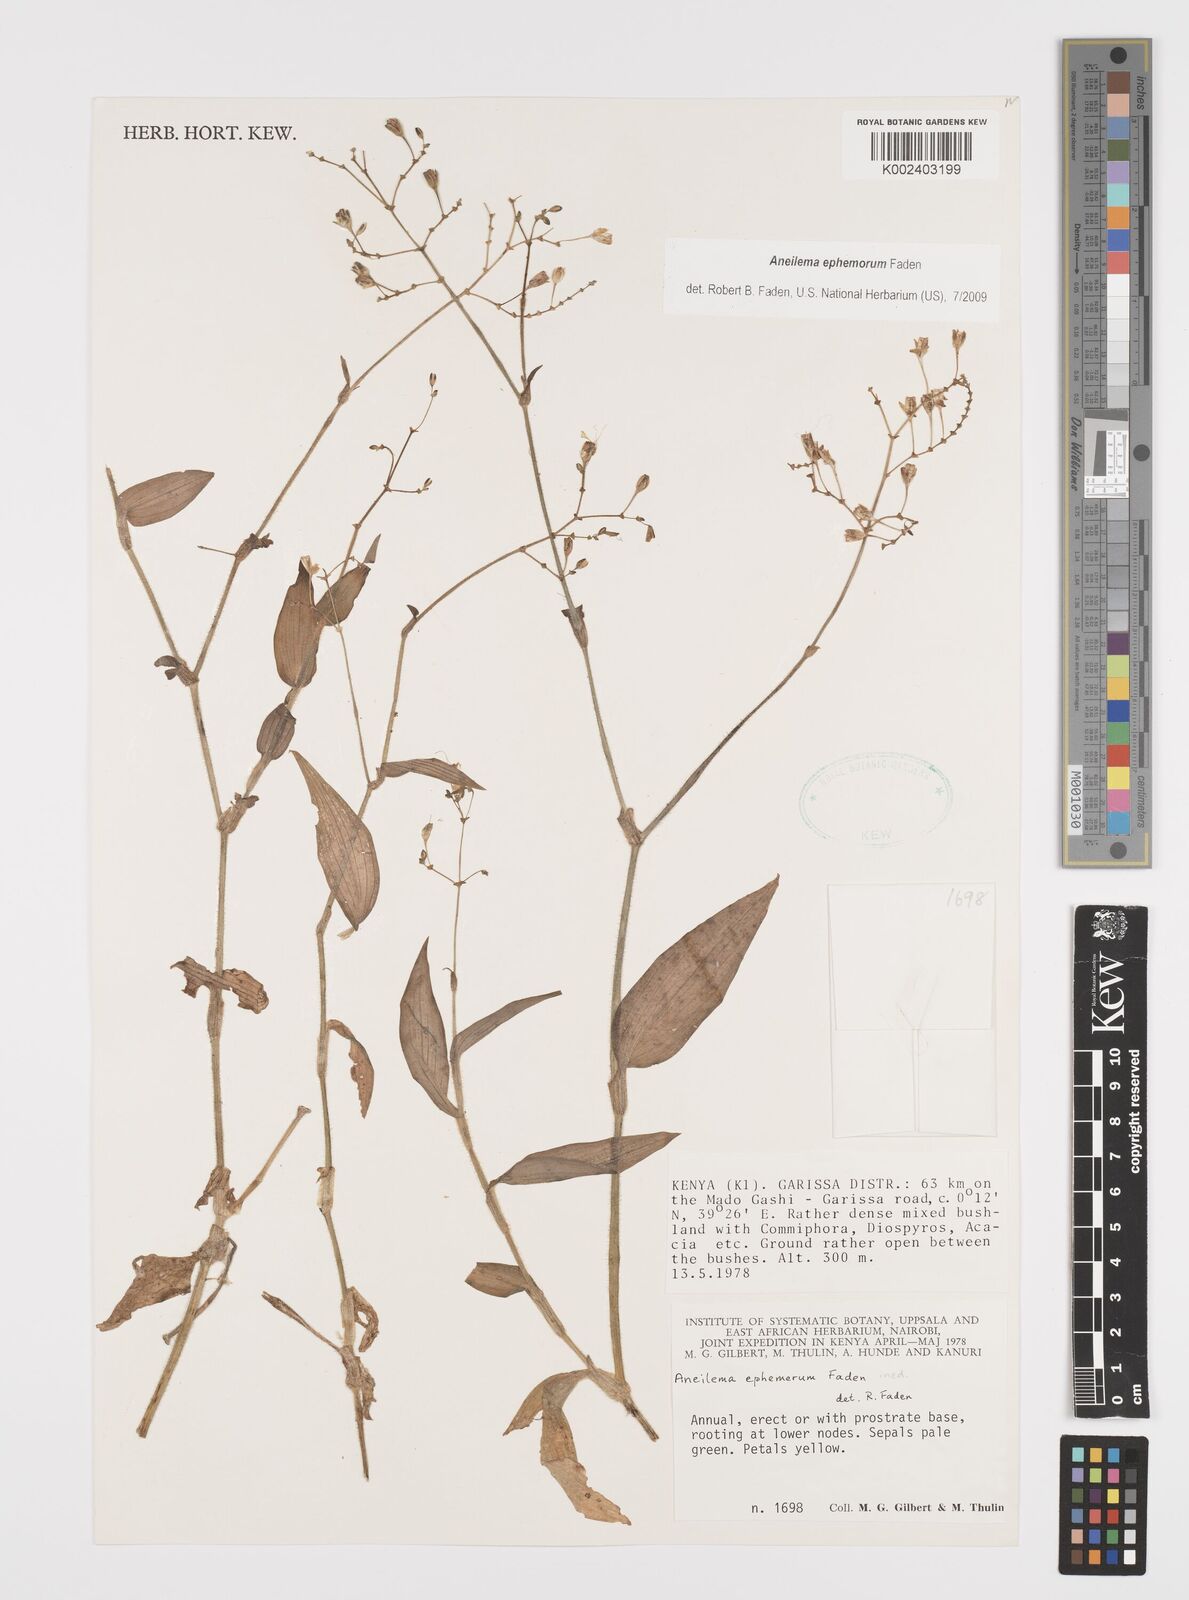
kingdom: Plantae
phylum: Tracheophyta
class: Liliopsida
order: Commelinales
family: Commelinaceae
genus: Aneilema
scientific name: Aneilema ephemerum
